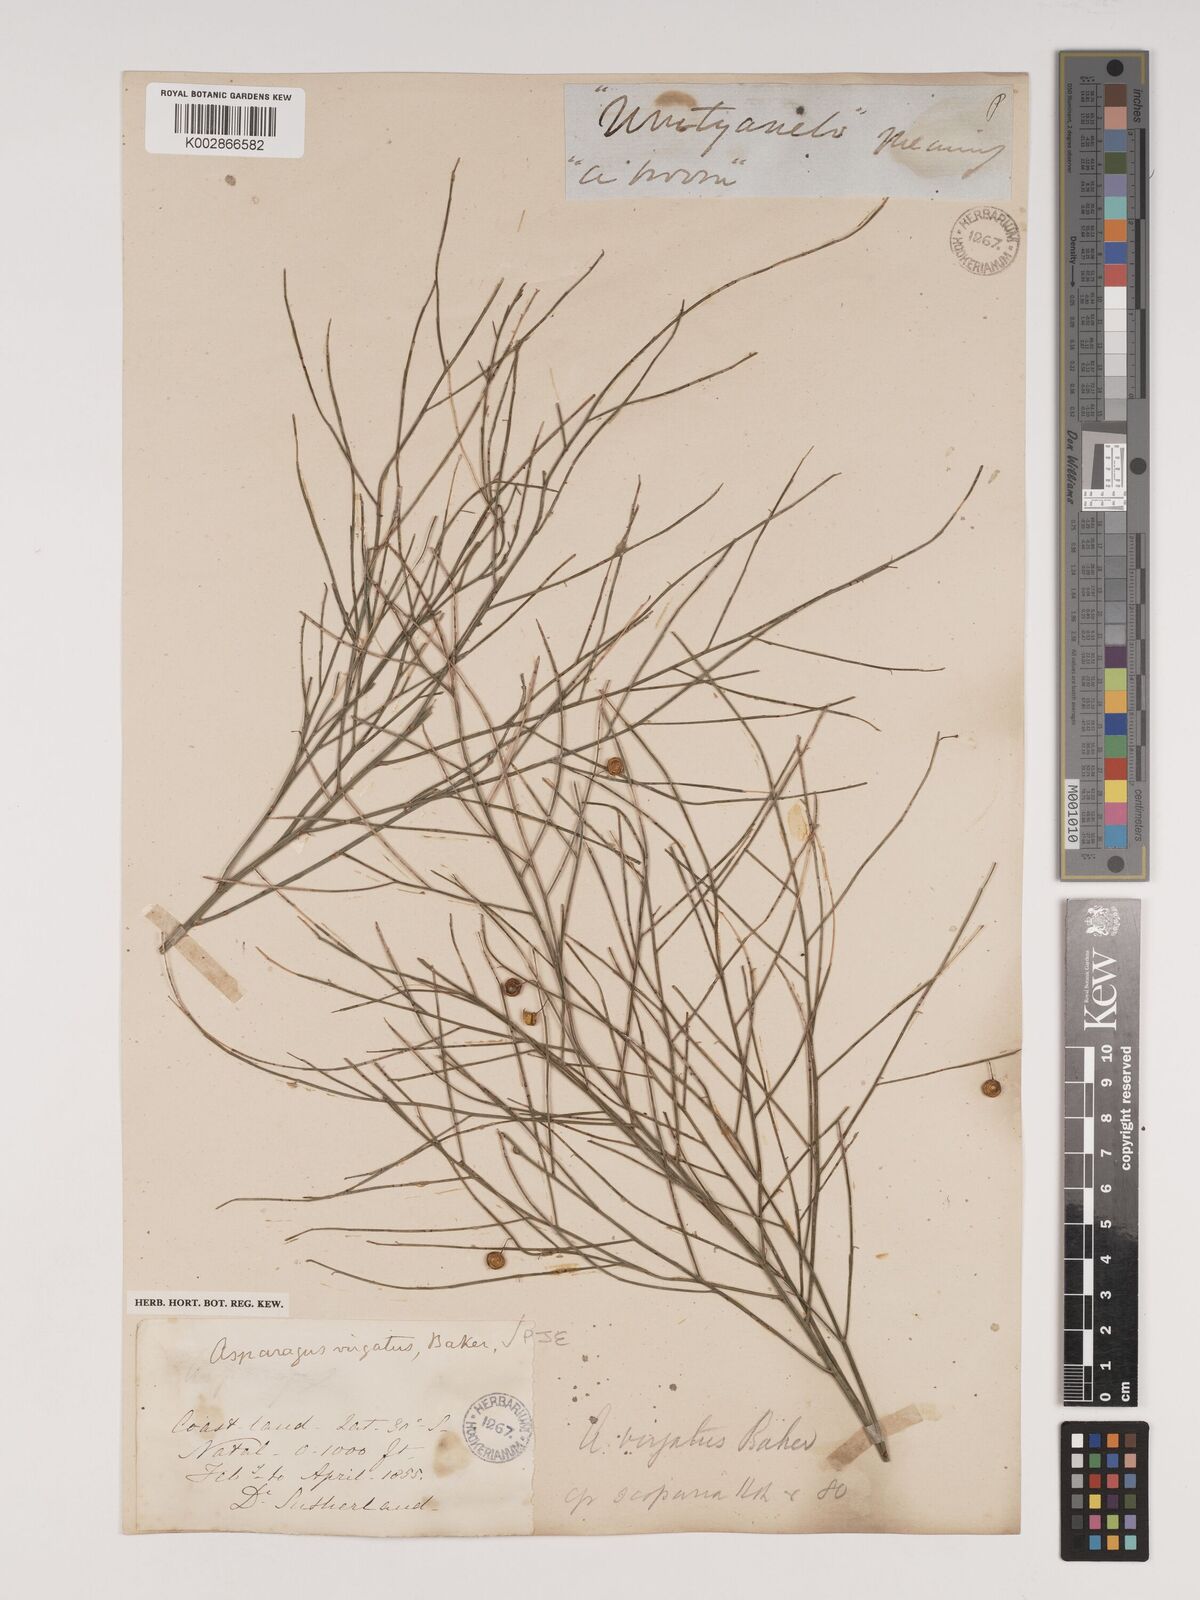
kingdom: Plantae
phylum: Tracheophyta
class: Liliopsida
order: Asparagales
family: Asparagaceae
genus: Asparagus
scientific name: Asparagus virgatus
